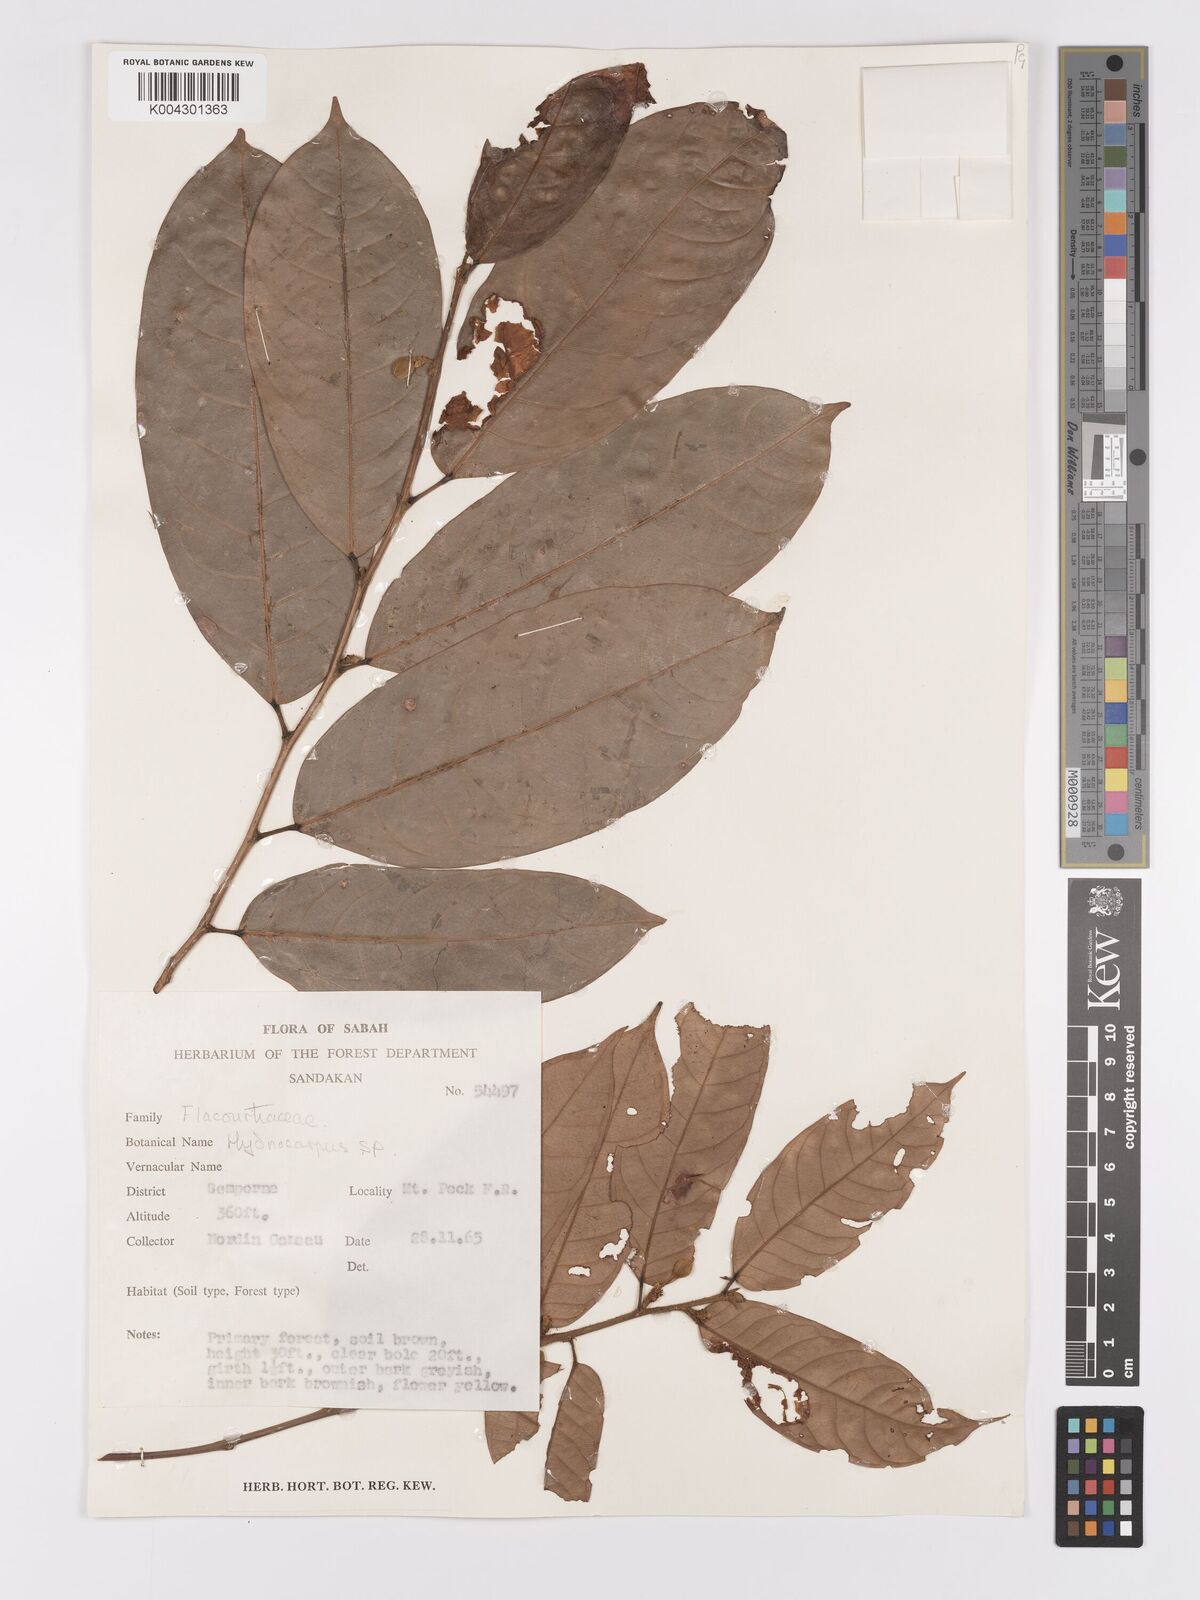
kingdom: Plantae
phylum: Tracheophyta
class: Magnoliopsida
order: Malpighiales
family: Achariaceae
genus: Hydnocarpus
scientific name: Hydnocarpus
